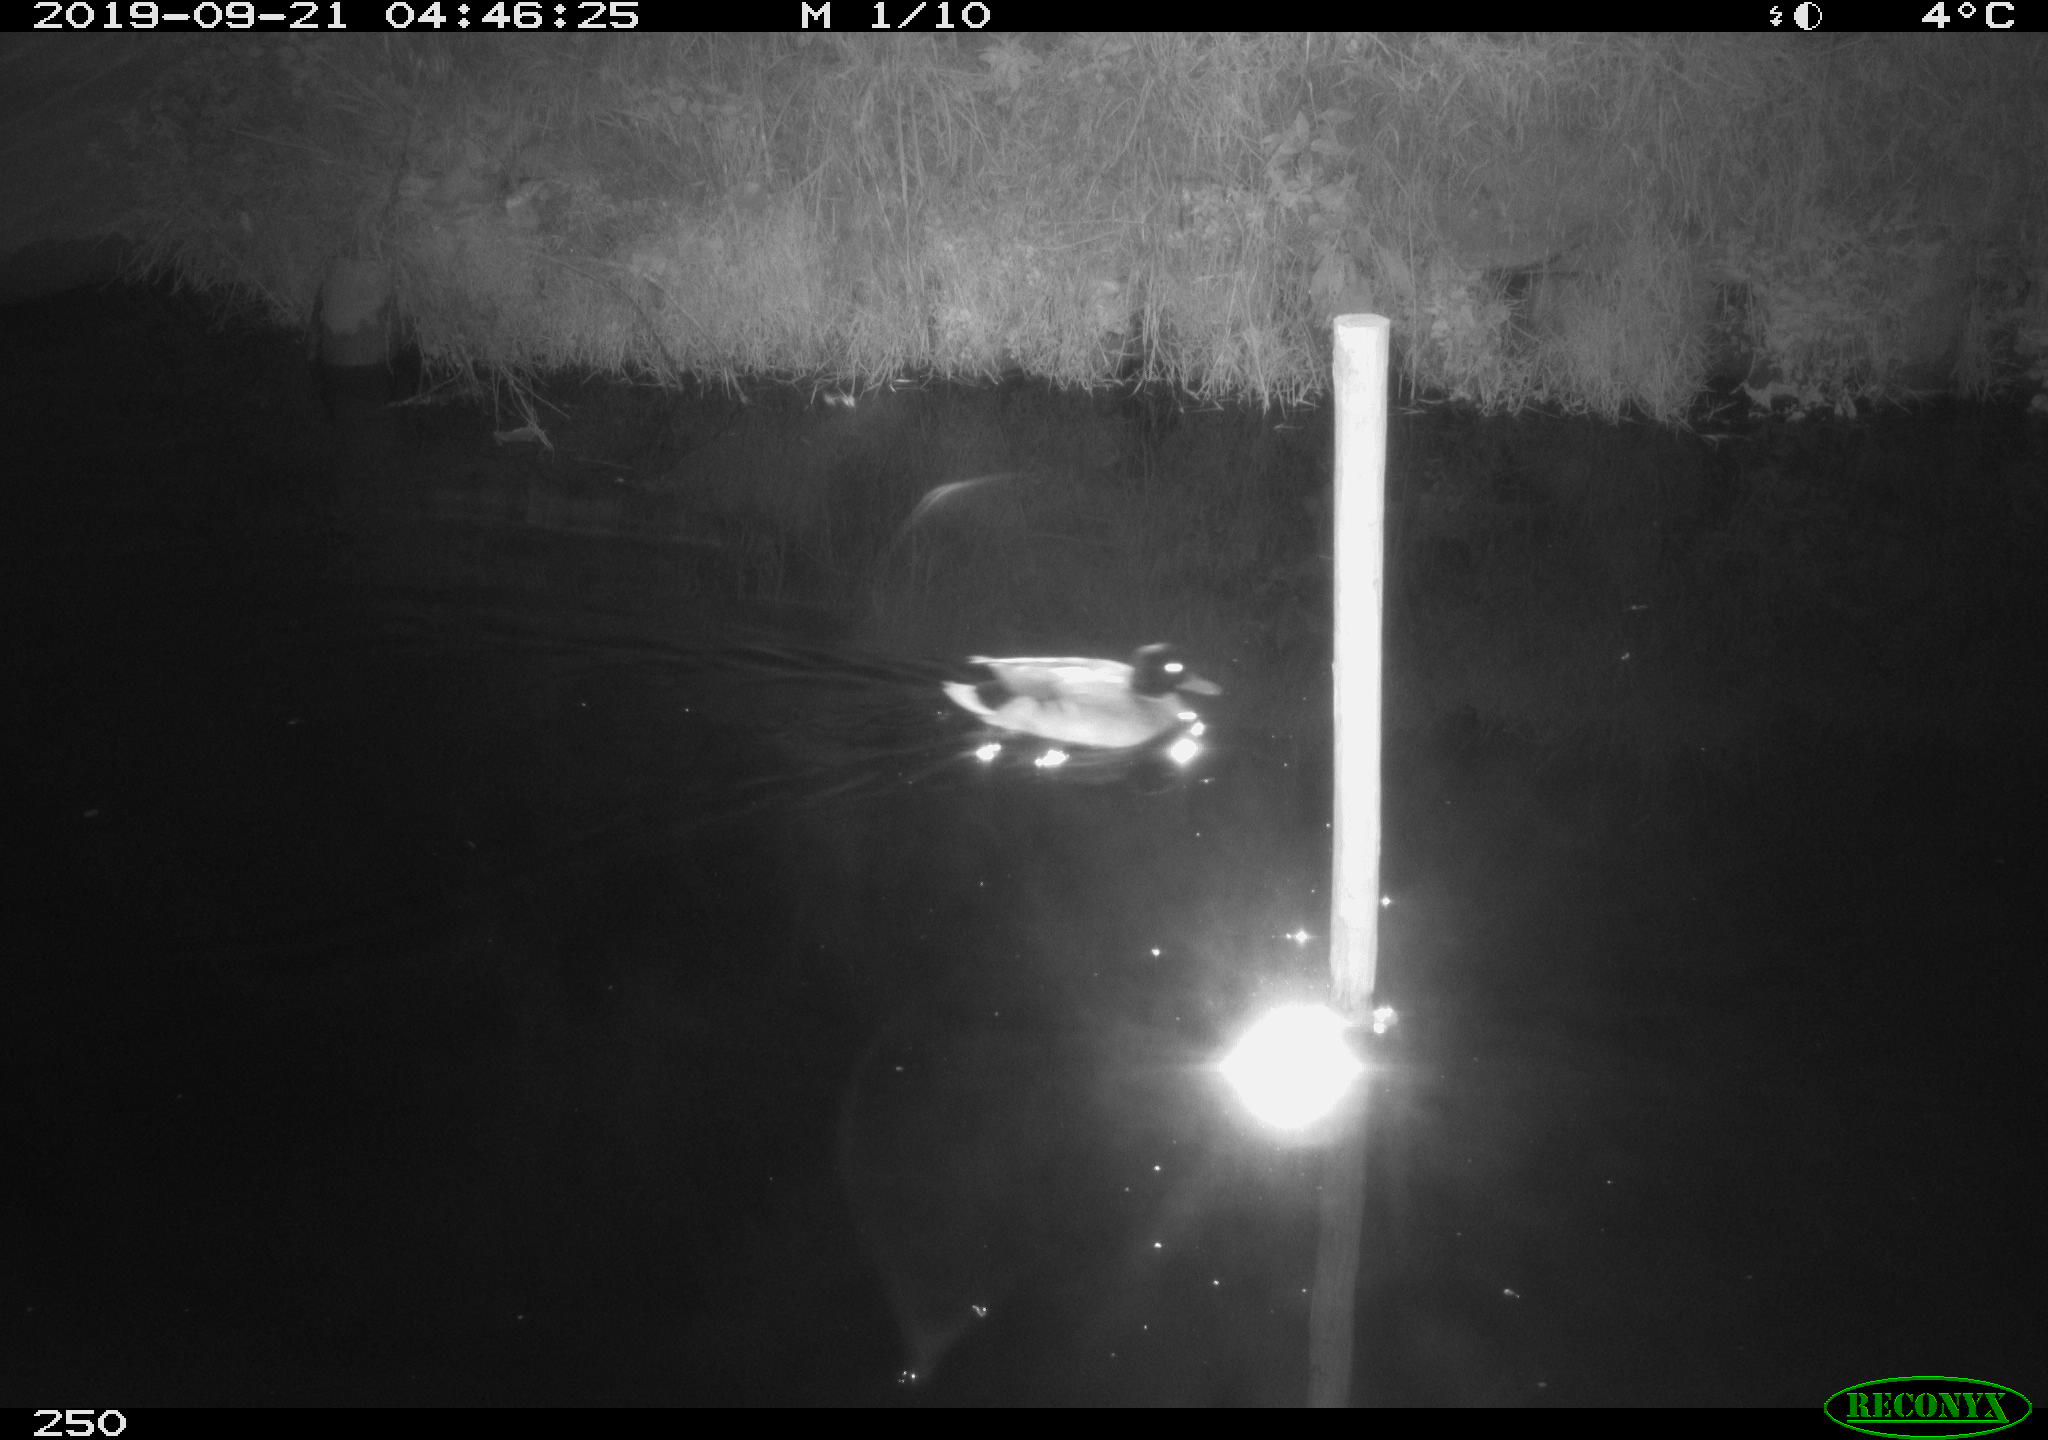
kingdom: Animalia
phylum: Chordata
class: Aves
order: Anseriformes
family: Anatidae
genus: Anas
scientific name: Anas platyrhynchos
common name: Mallard
